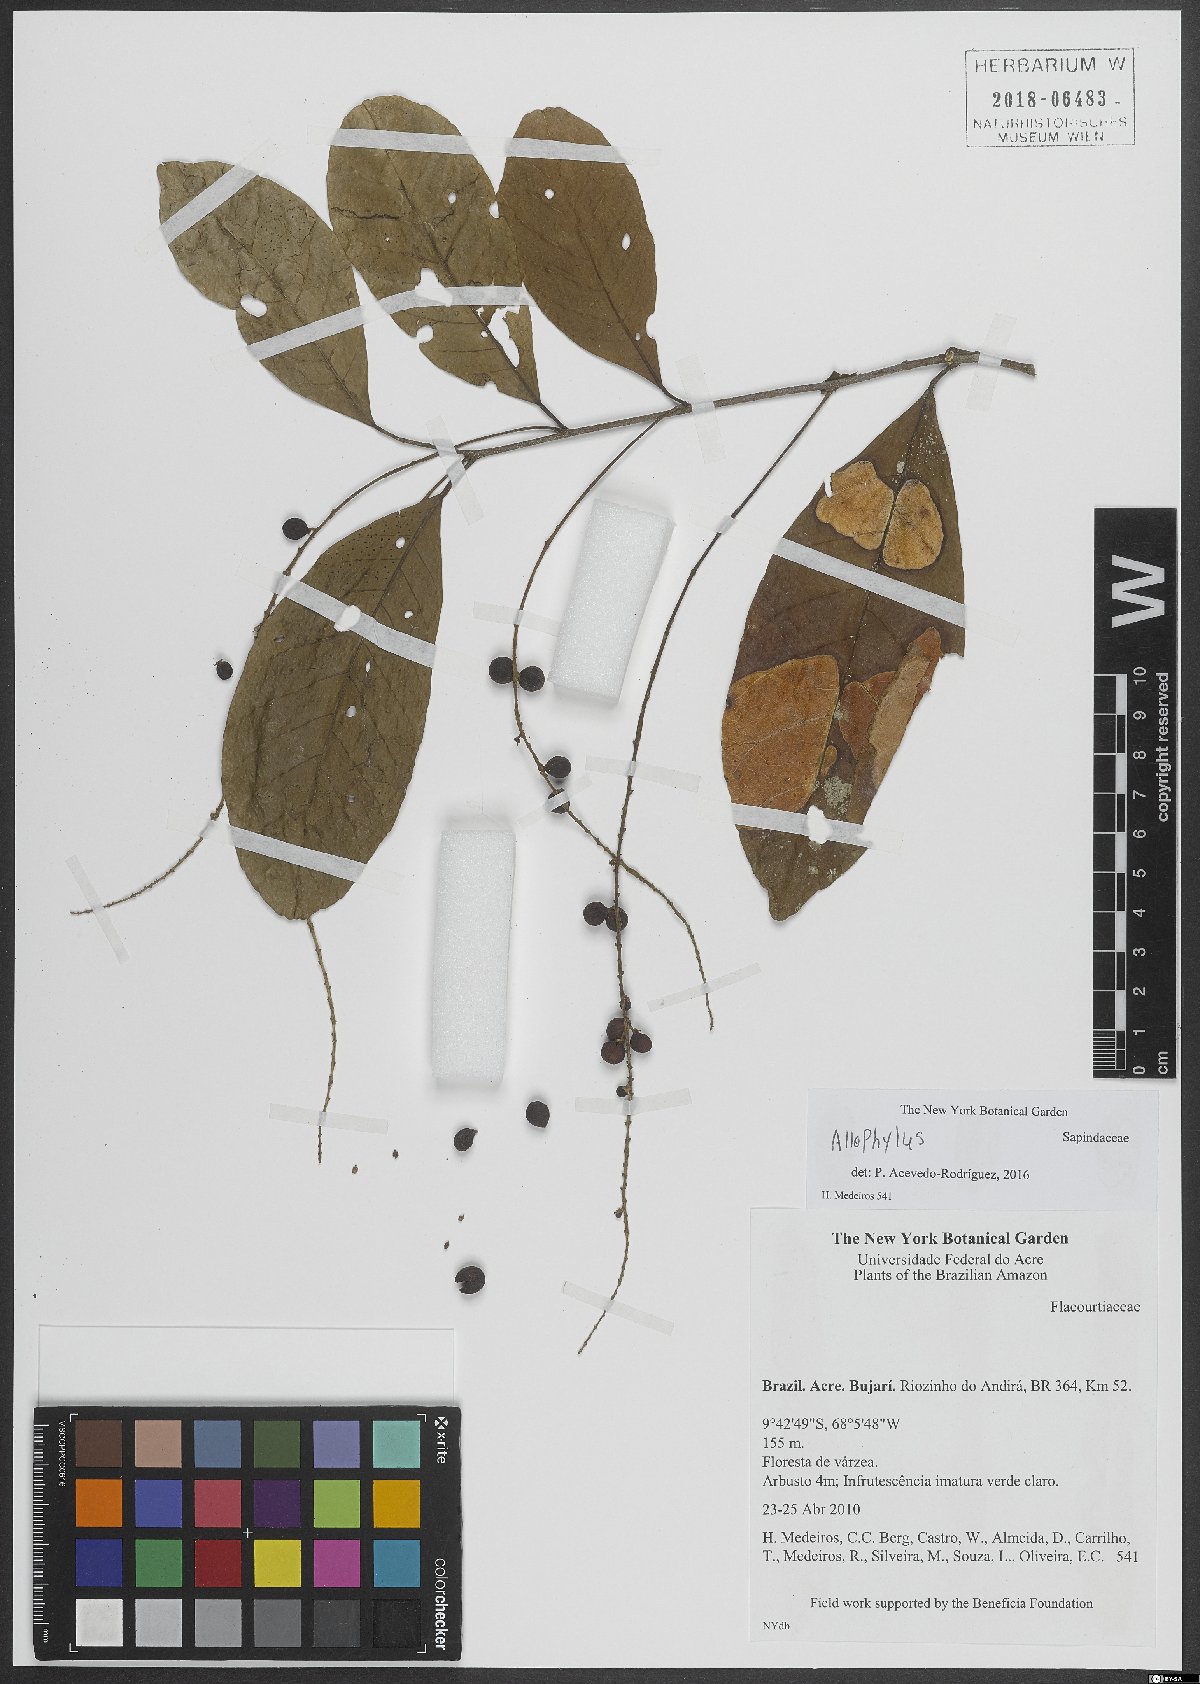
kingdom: Plantae
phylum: Tracheophyta
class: Magnoliopsida
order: Sapindales
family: Sapindaceae
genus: Allophylus
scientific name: Allophylus
